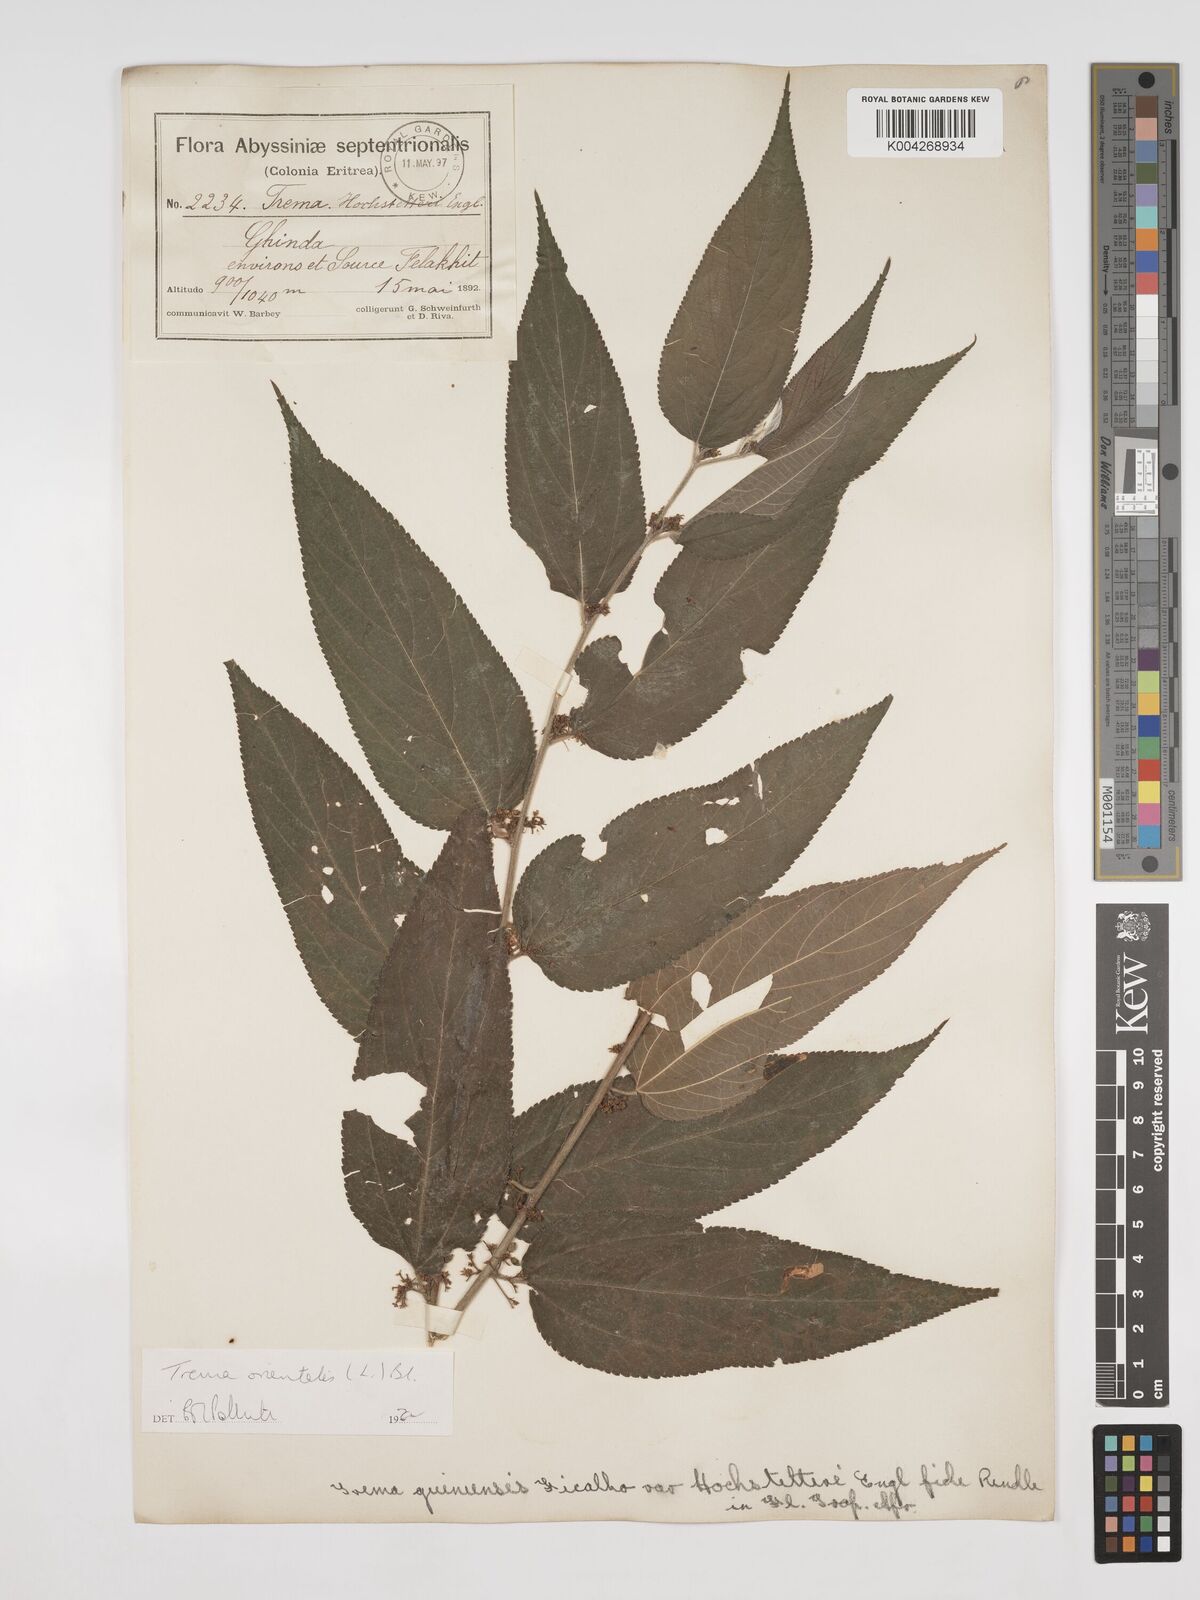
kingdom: Plantae
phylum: Tracheophyta
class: Magnoliopsida
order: Rosales
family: Cannabaceae
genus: Trema
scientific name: Trema orientale
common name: Indian charcoal tree
